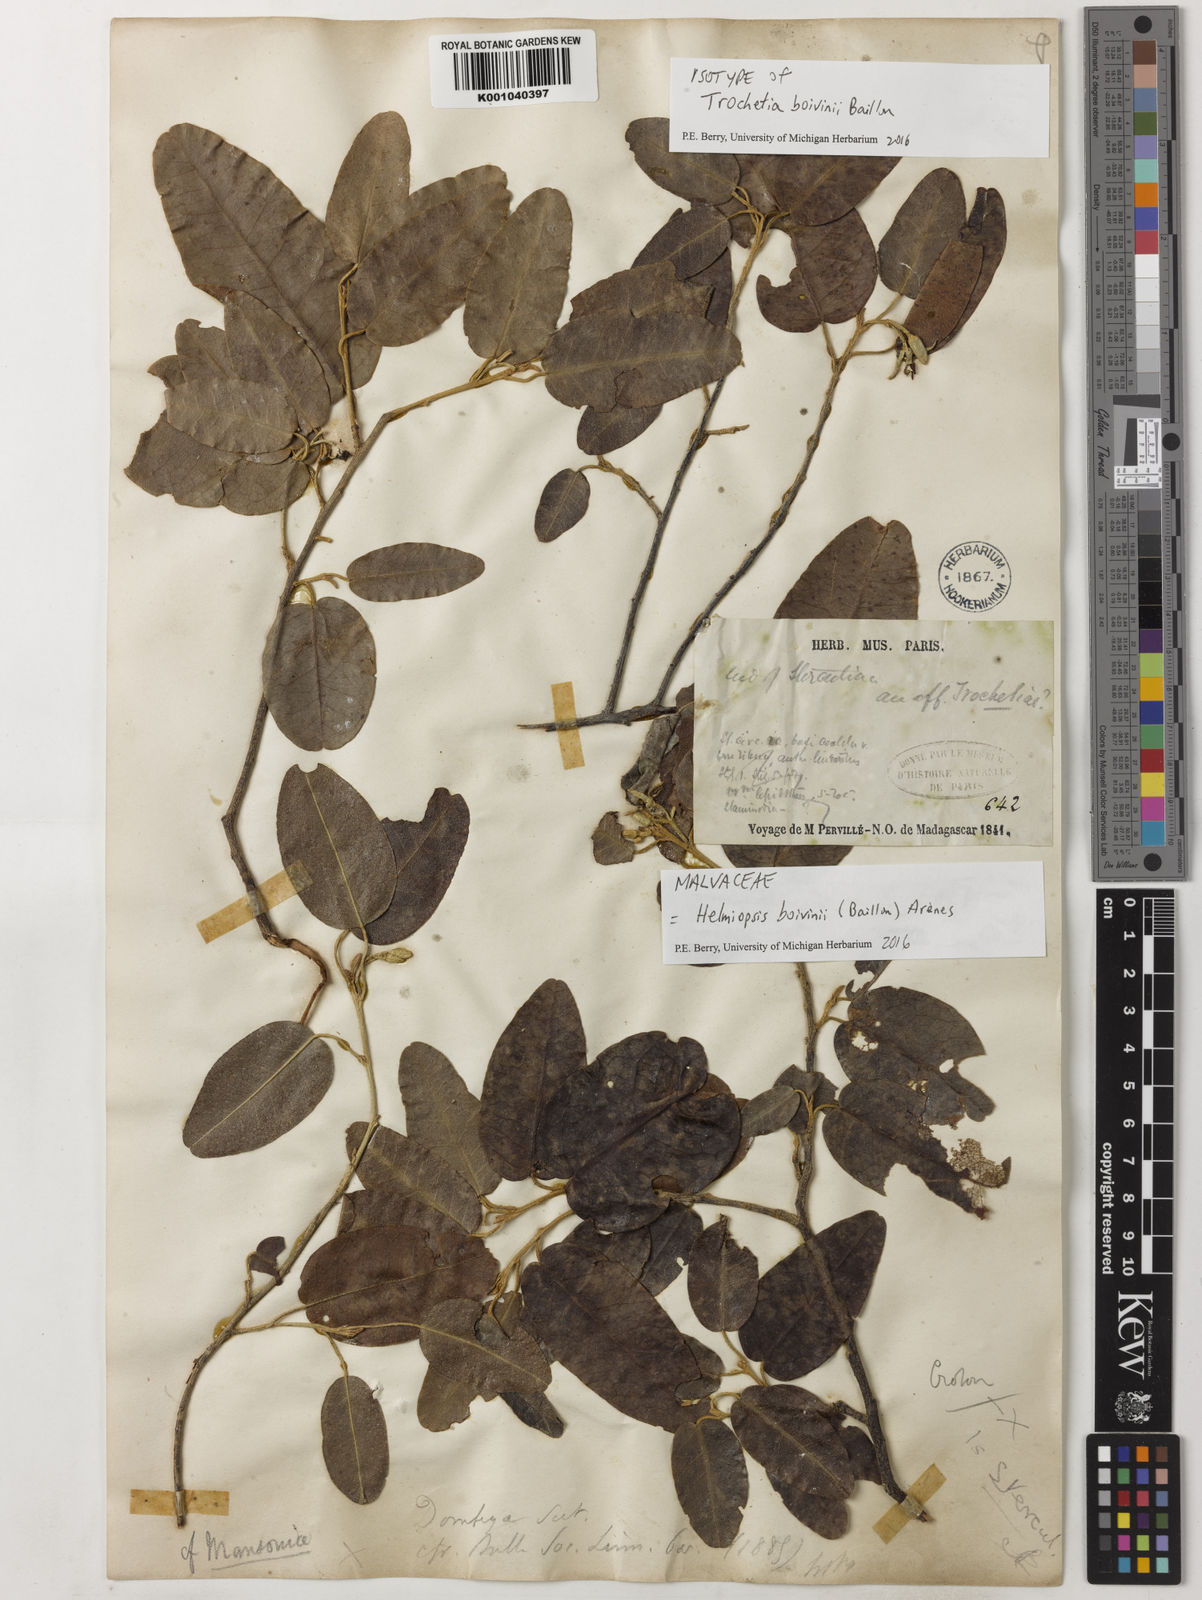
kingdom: Plantae
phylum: Tracheophyta
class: Magnoliopsida
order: Malvales
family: Malvaceae
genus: Eriolaena
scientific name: Eriolaena
